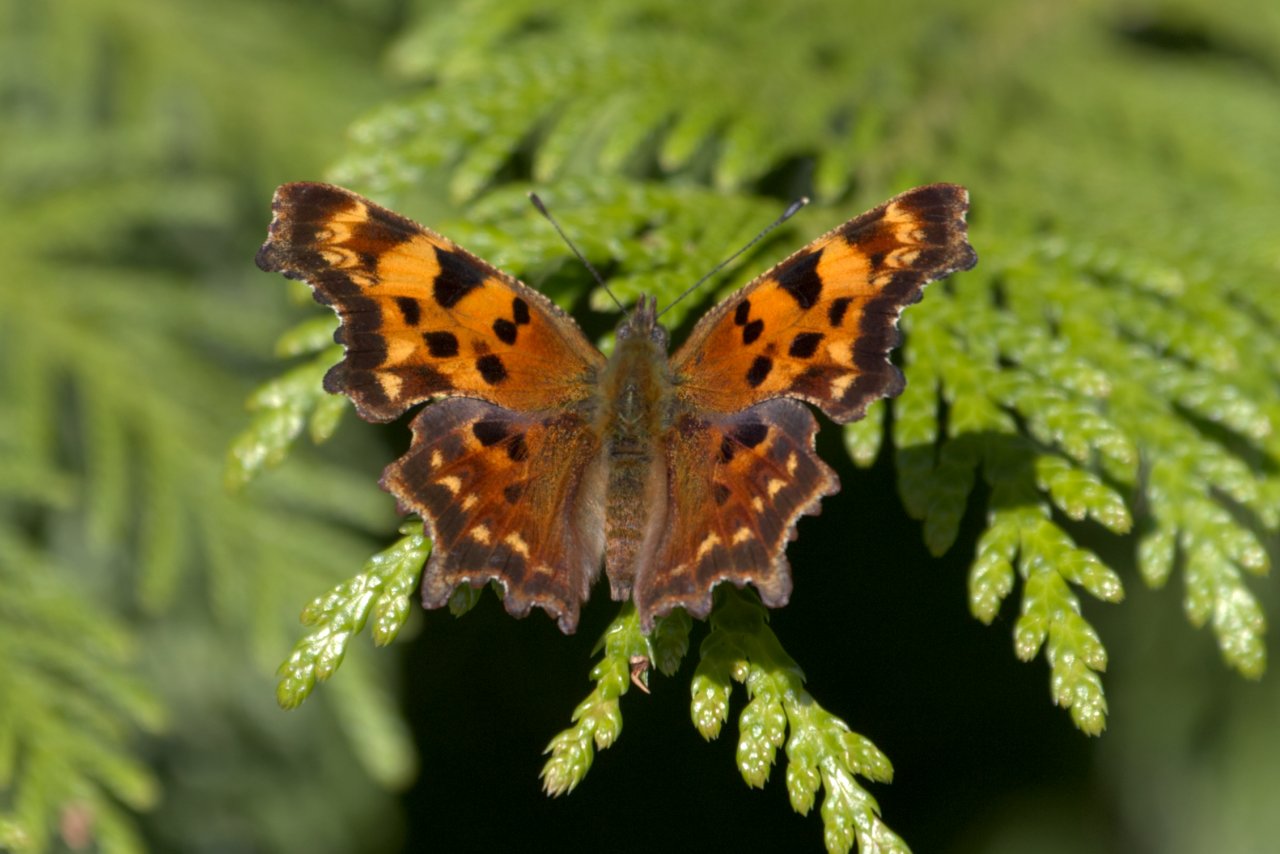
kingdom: Animalia
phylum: Arthropoda
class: Insecta
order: Lepidoptera
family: Nymphalidae
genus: Polygonia
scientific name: Polygonia faunus
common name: Green Comma
